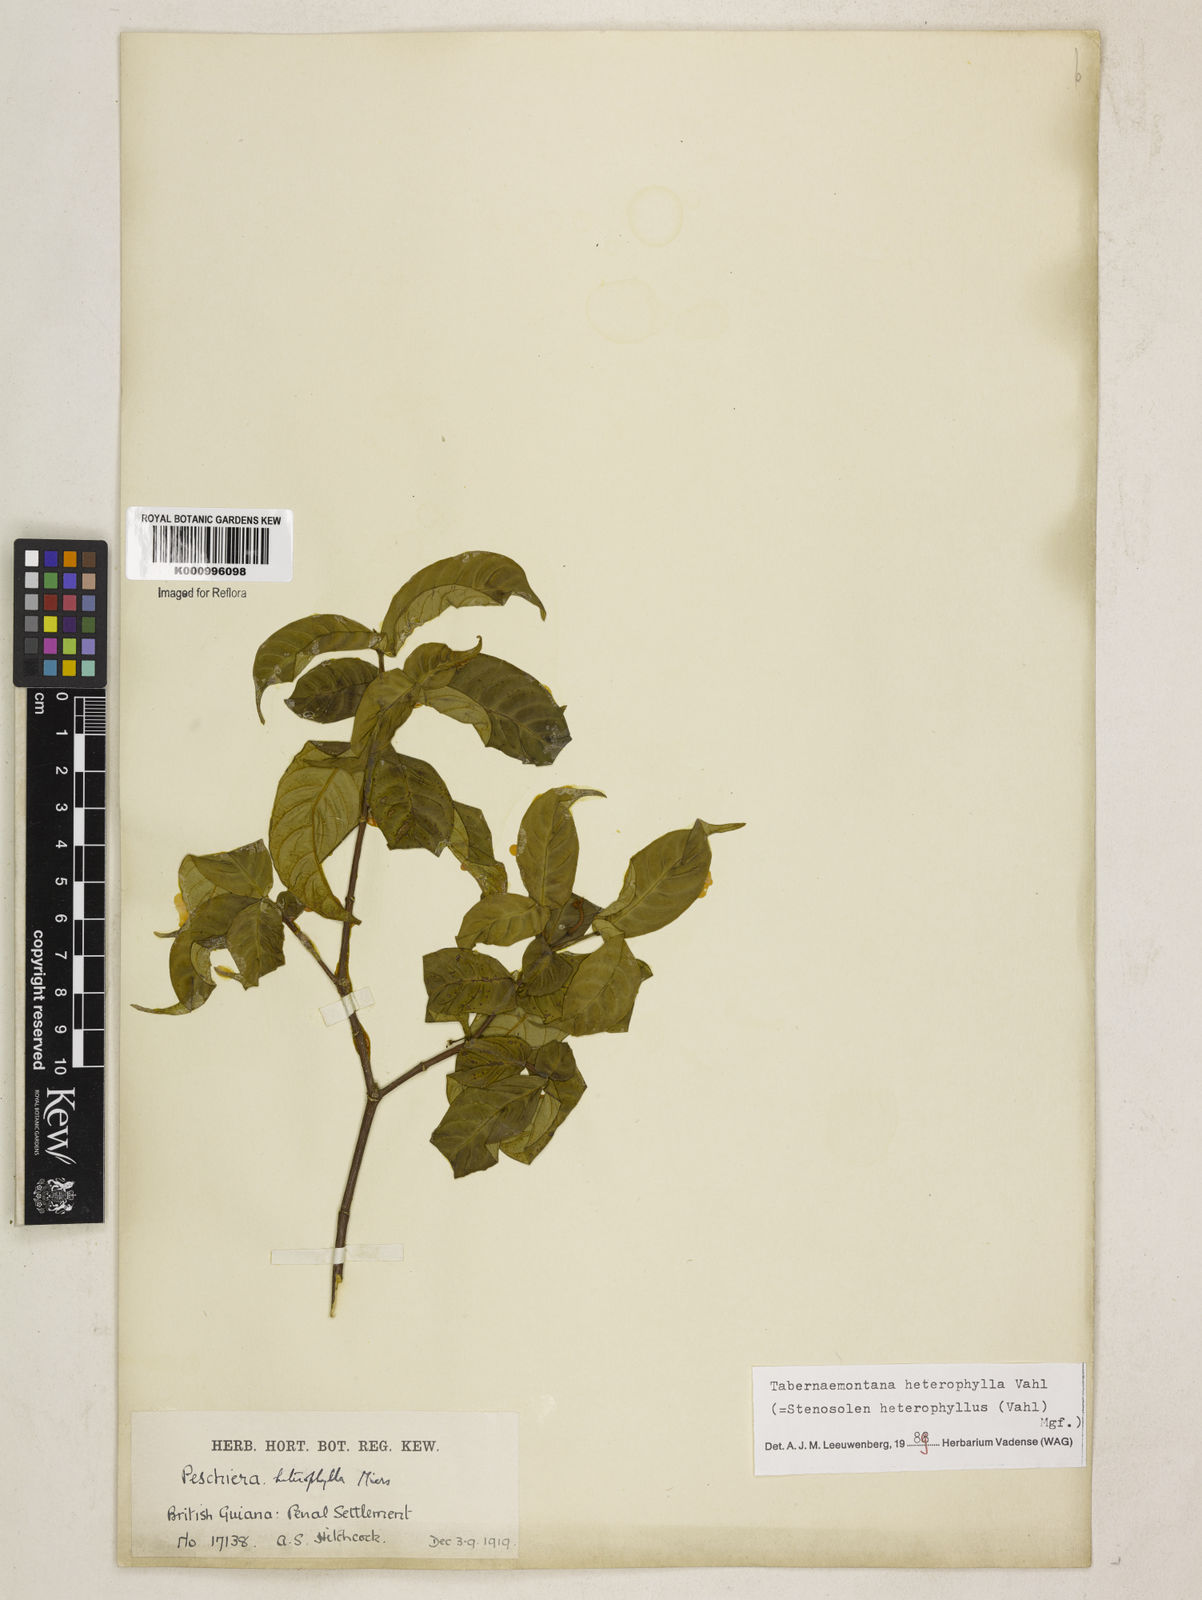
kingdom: Plantae
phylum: Tracheophyta
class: Magnoliopsida
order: Gentianales
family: Apocynaceae
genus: Tabernaemontana
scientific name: Tabernaemontana heterophylla
